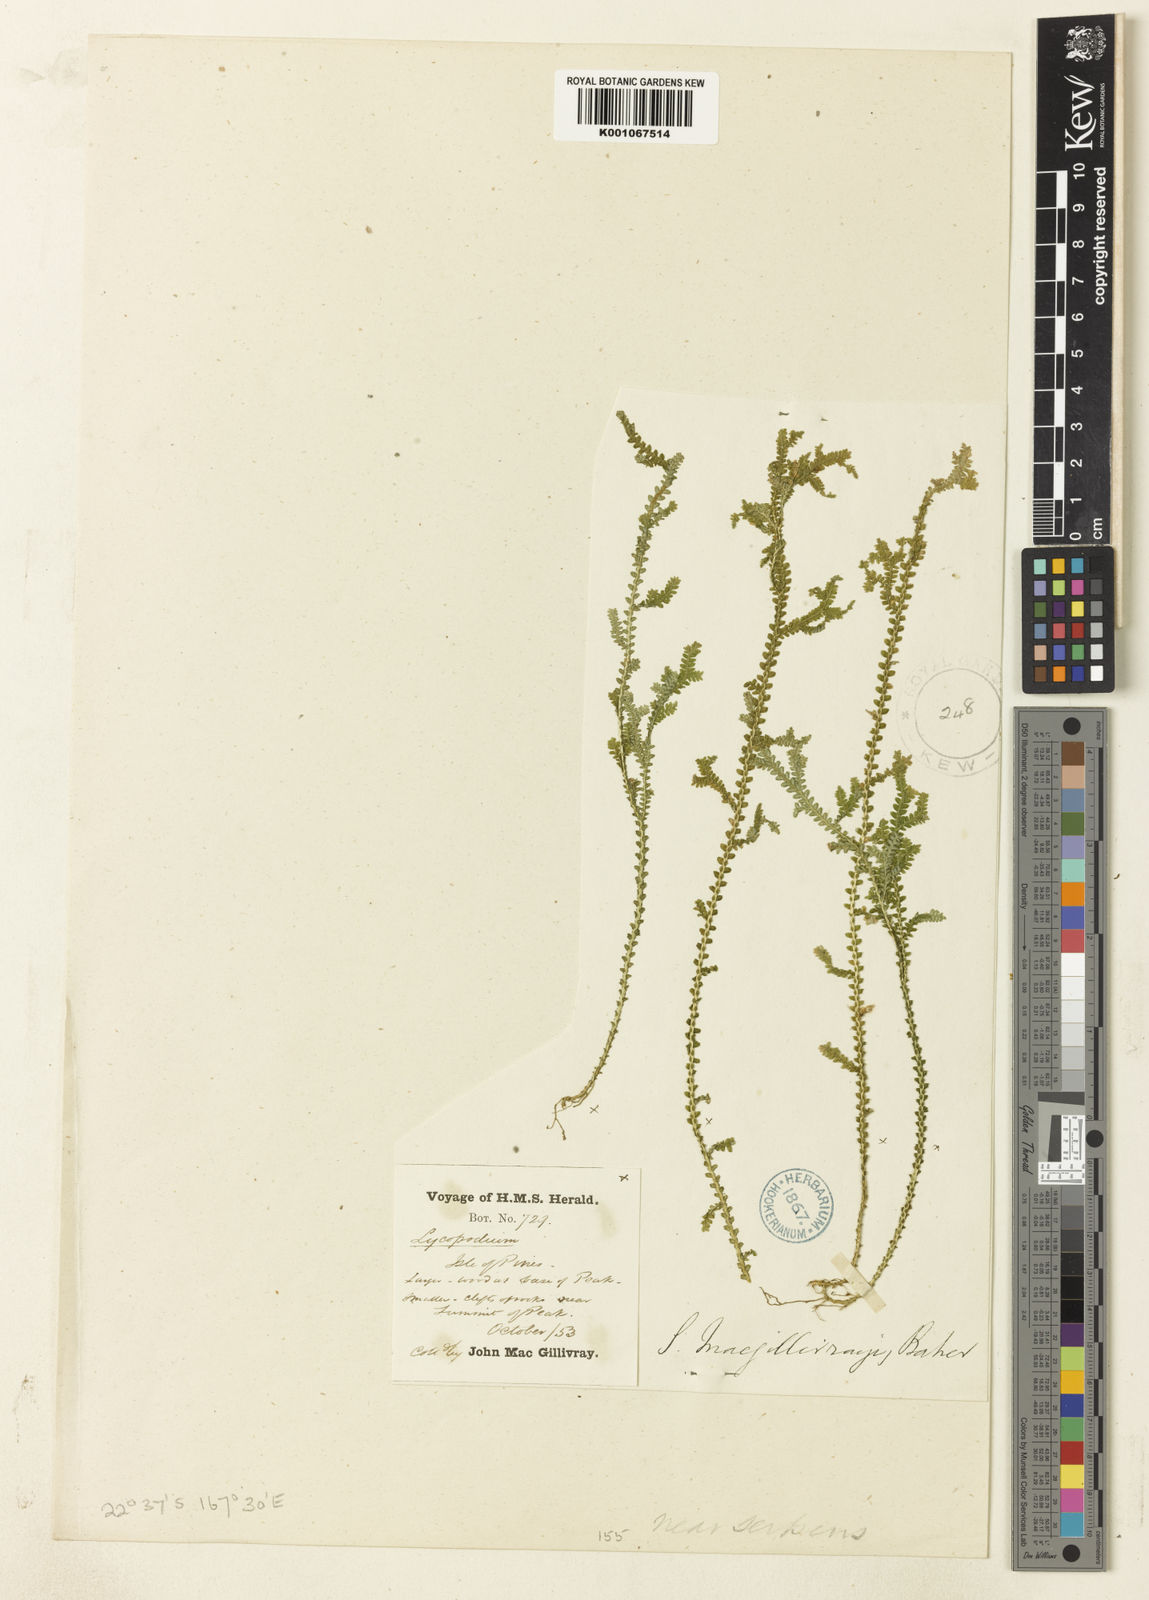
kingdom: Plantae
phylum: Tracheophyta
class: Lycopodiopsida
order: Selaginellales
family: Selaginellaceae
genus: Selaginella
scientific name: Selaginella neocaledonica
